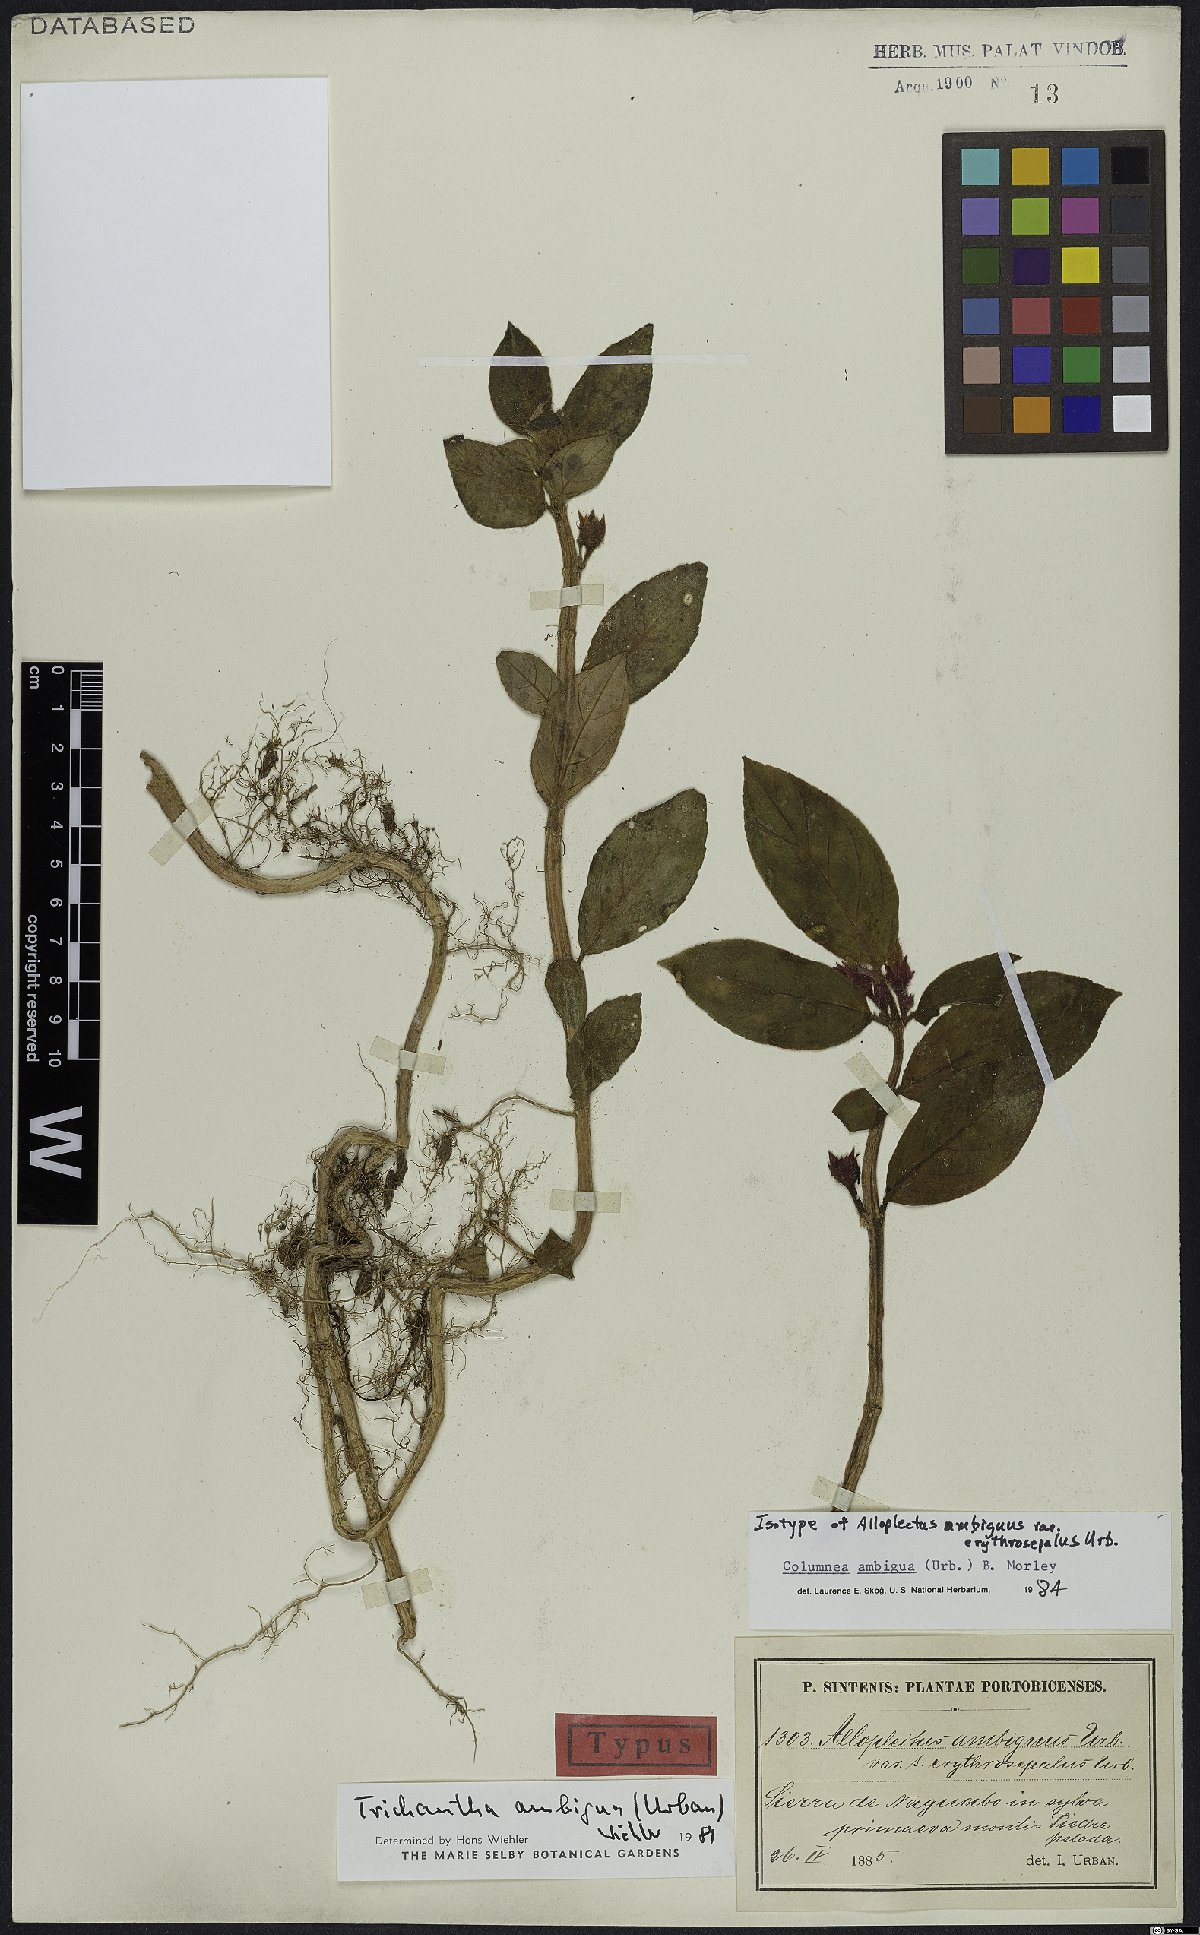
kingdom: Plantae
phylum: Tracheophyta
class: Magnoliopsida
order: Lamiales
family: Gesneriaceae
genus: Columnea
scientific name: Columnea ambigua
